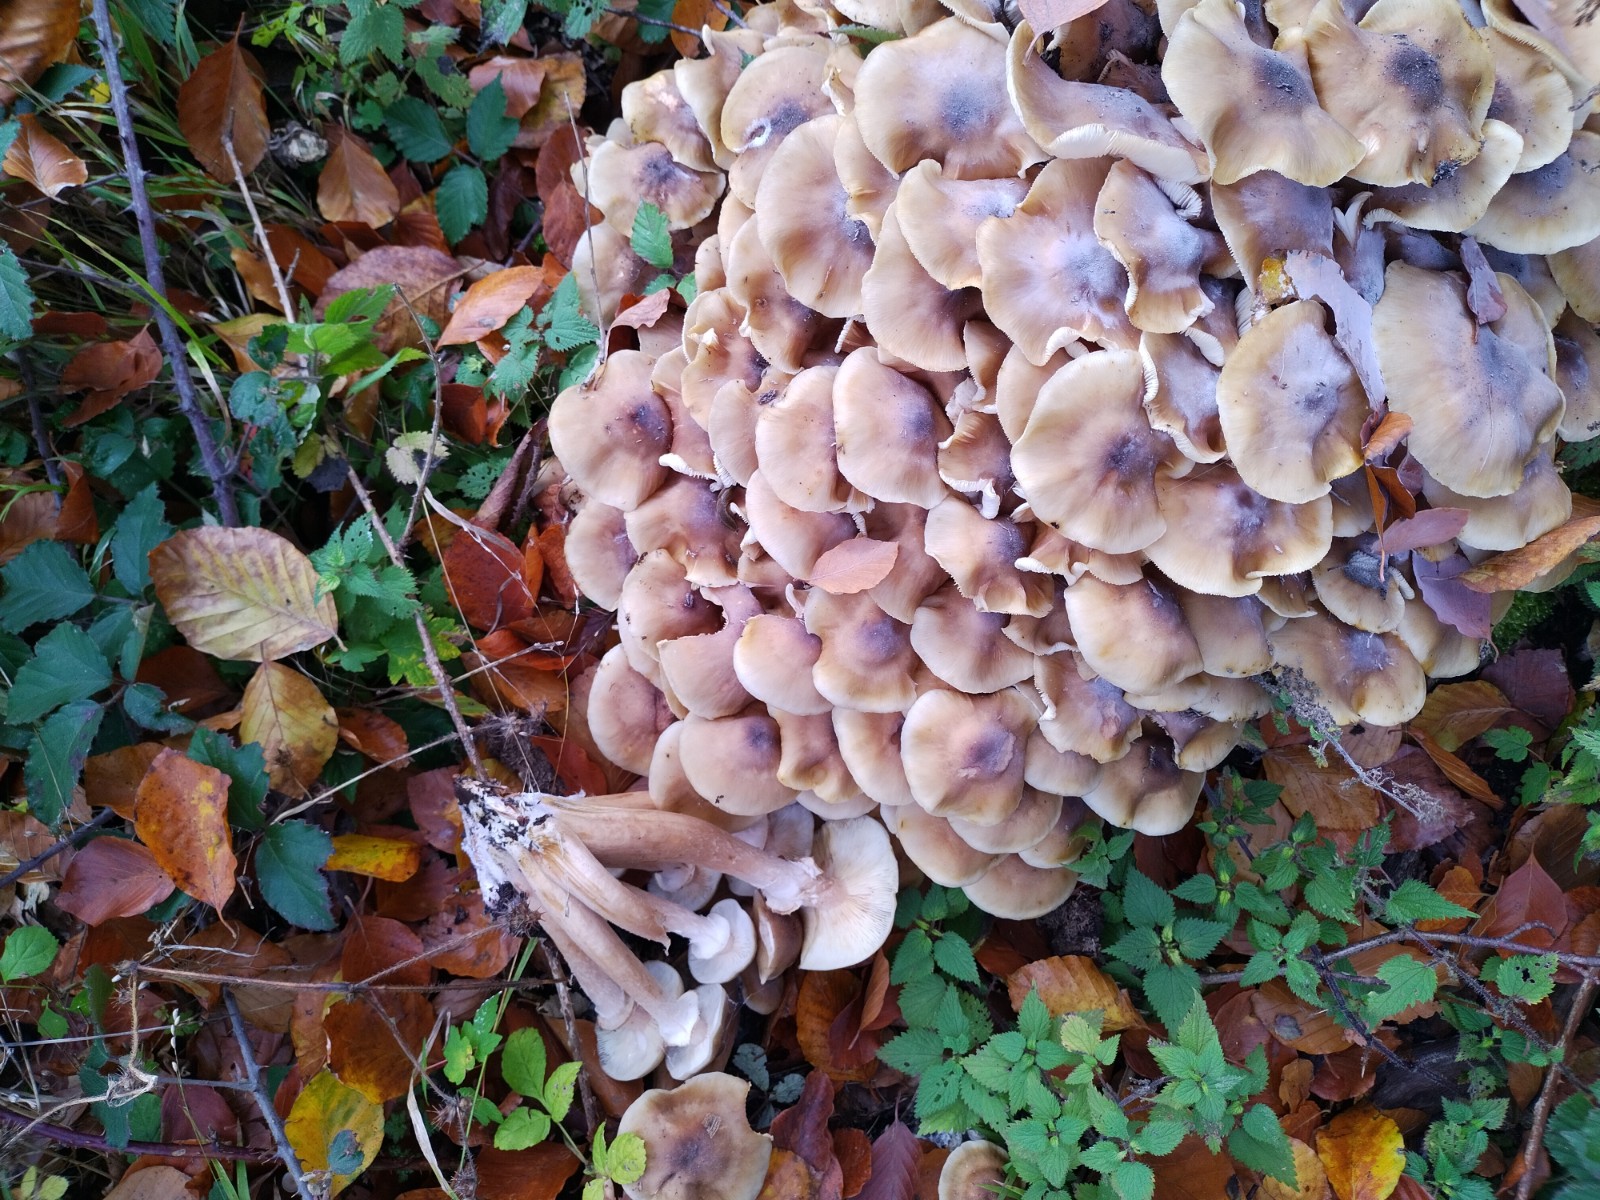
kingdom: Fungi
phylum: Basidiomycota
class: Agaricomycetes
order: Agaricales
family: Physalacriaceae
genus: Armillaria
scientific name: Armillaria lutea
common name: køllestokket honningsvamp
